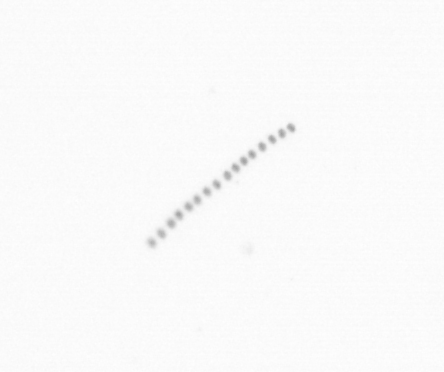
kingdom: Chromista
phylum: Ochrophyta
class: Bacillariophyceae
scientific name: Bacillariophyceae
